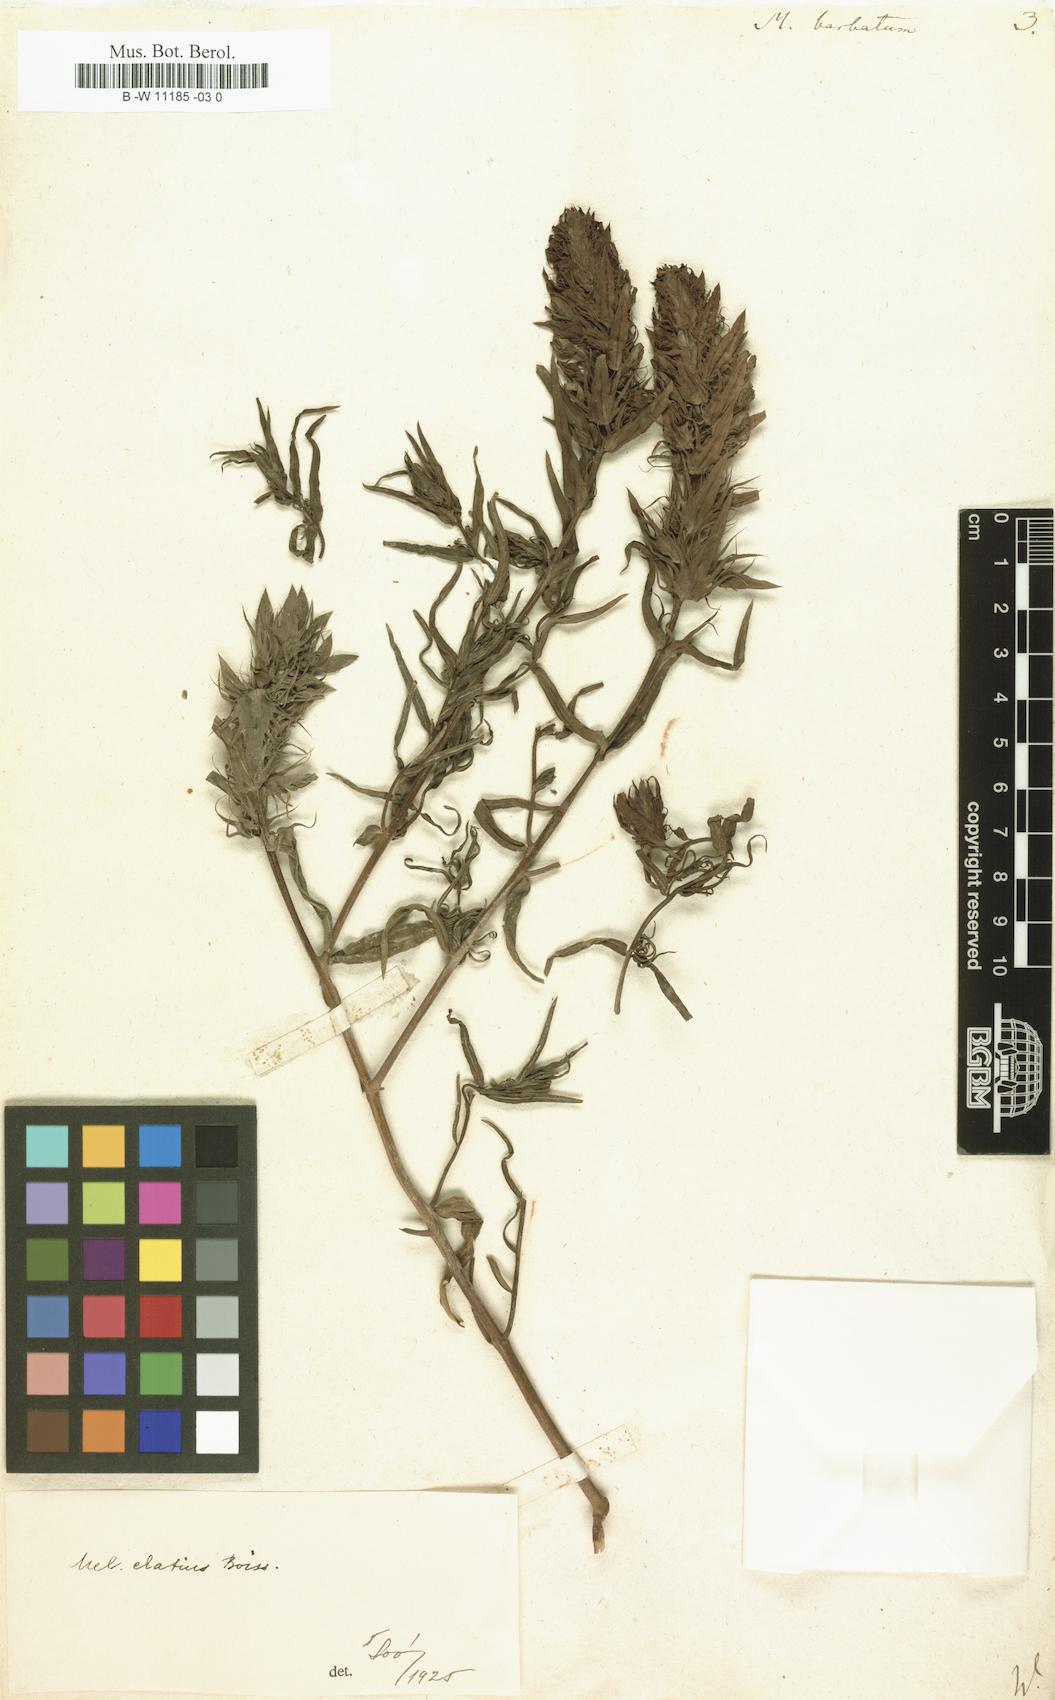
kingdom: Plantae
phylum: Tracheophyta
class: Magnoliopsida
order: Lamiales
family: Orobanchaceae
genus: Melampyrum
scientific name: Melampyrum barbatum
